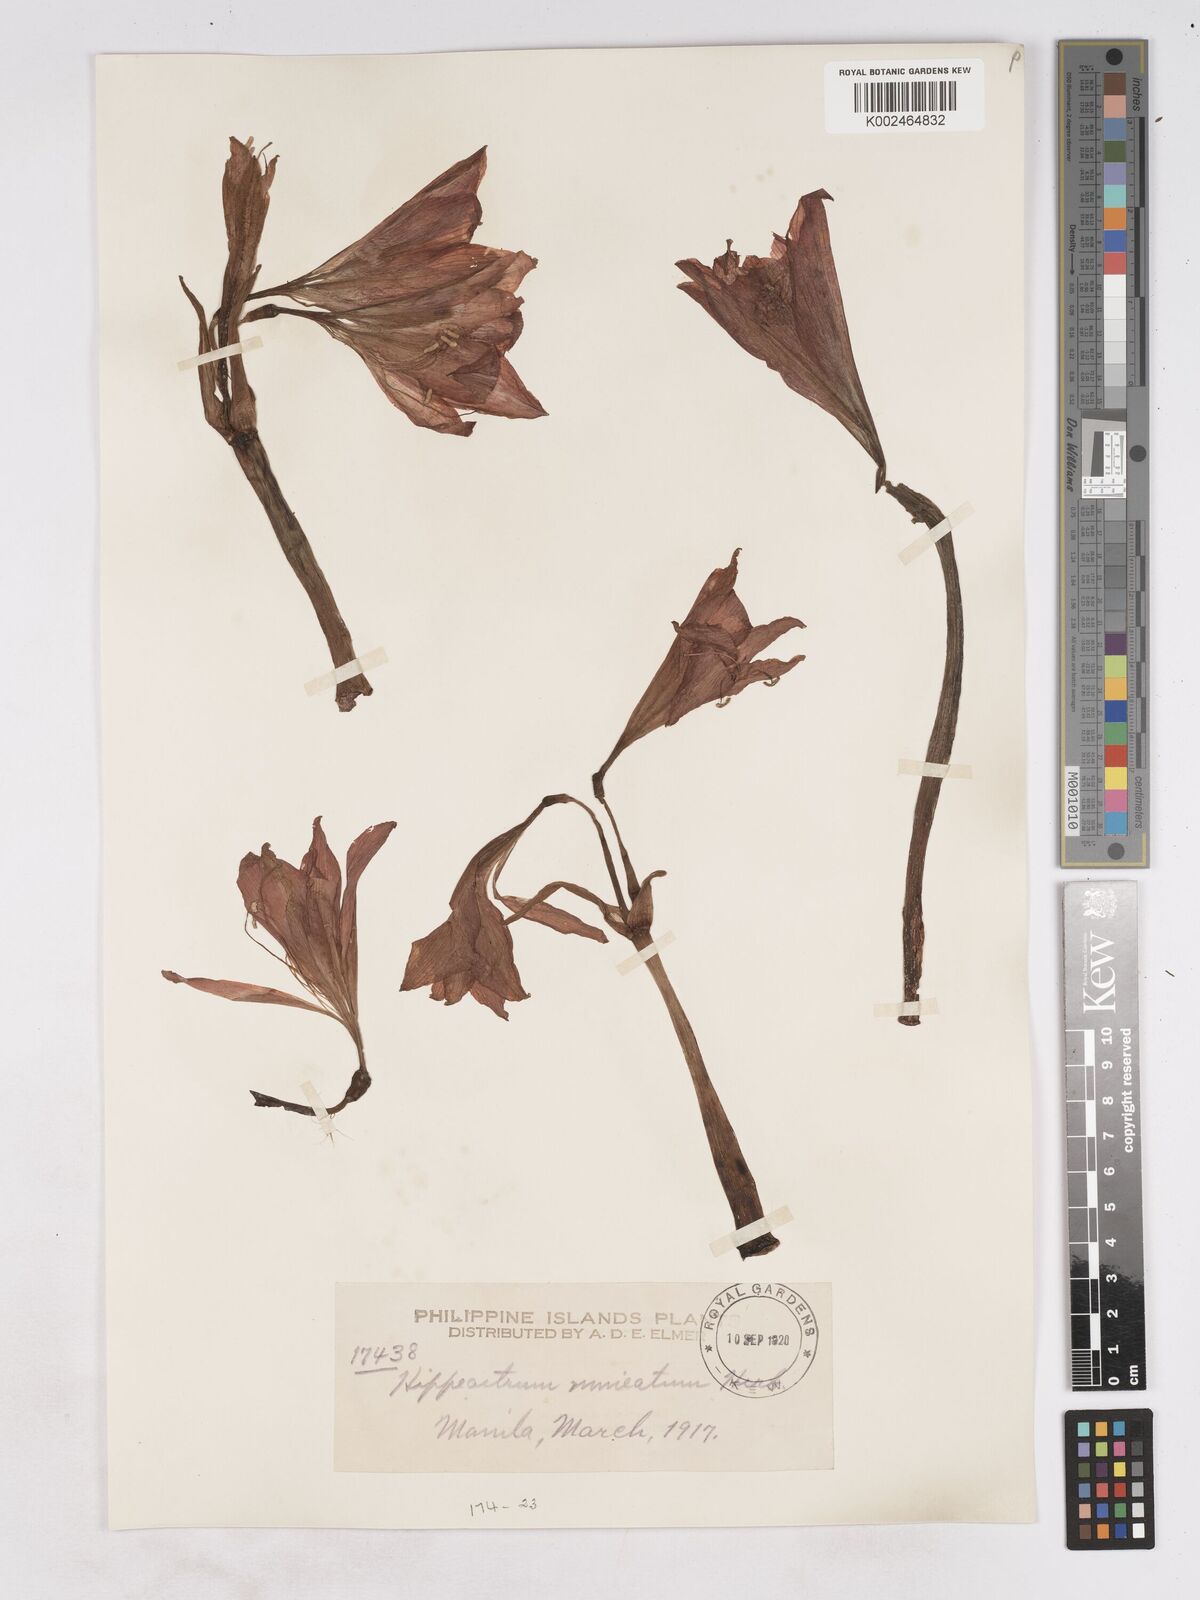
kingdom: Plantae
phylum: Tracheophyta
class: Liliopsida
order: Asparagales
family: Amaryllidaceae
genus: Hippeastrum
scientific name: Hippeastrum
